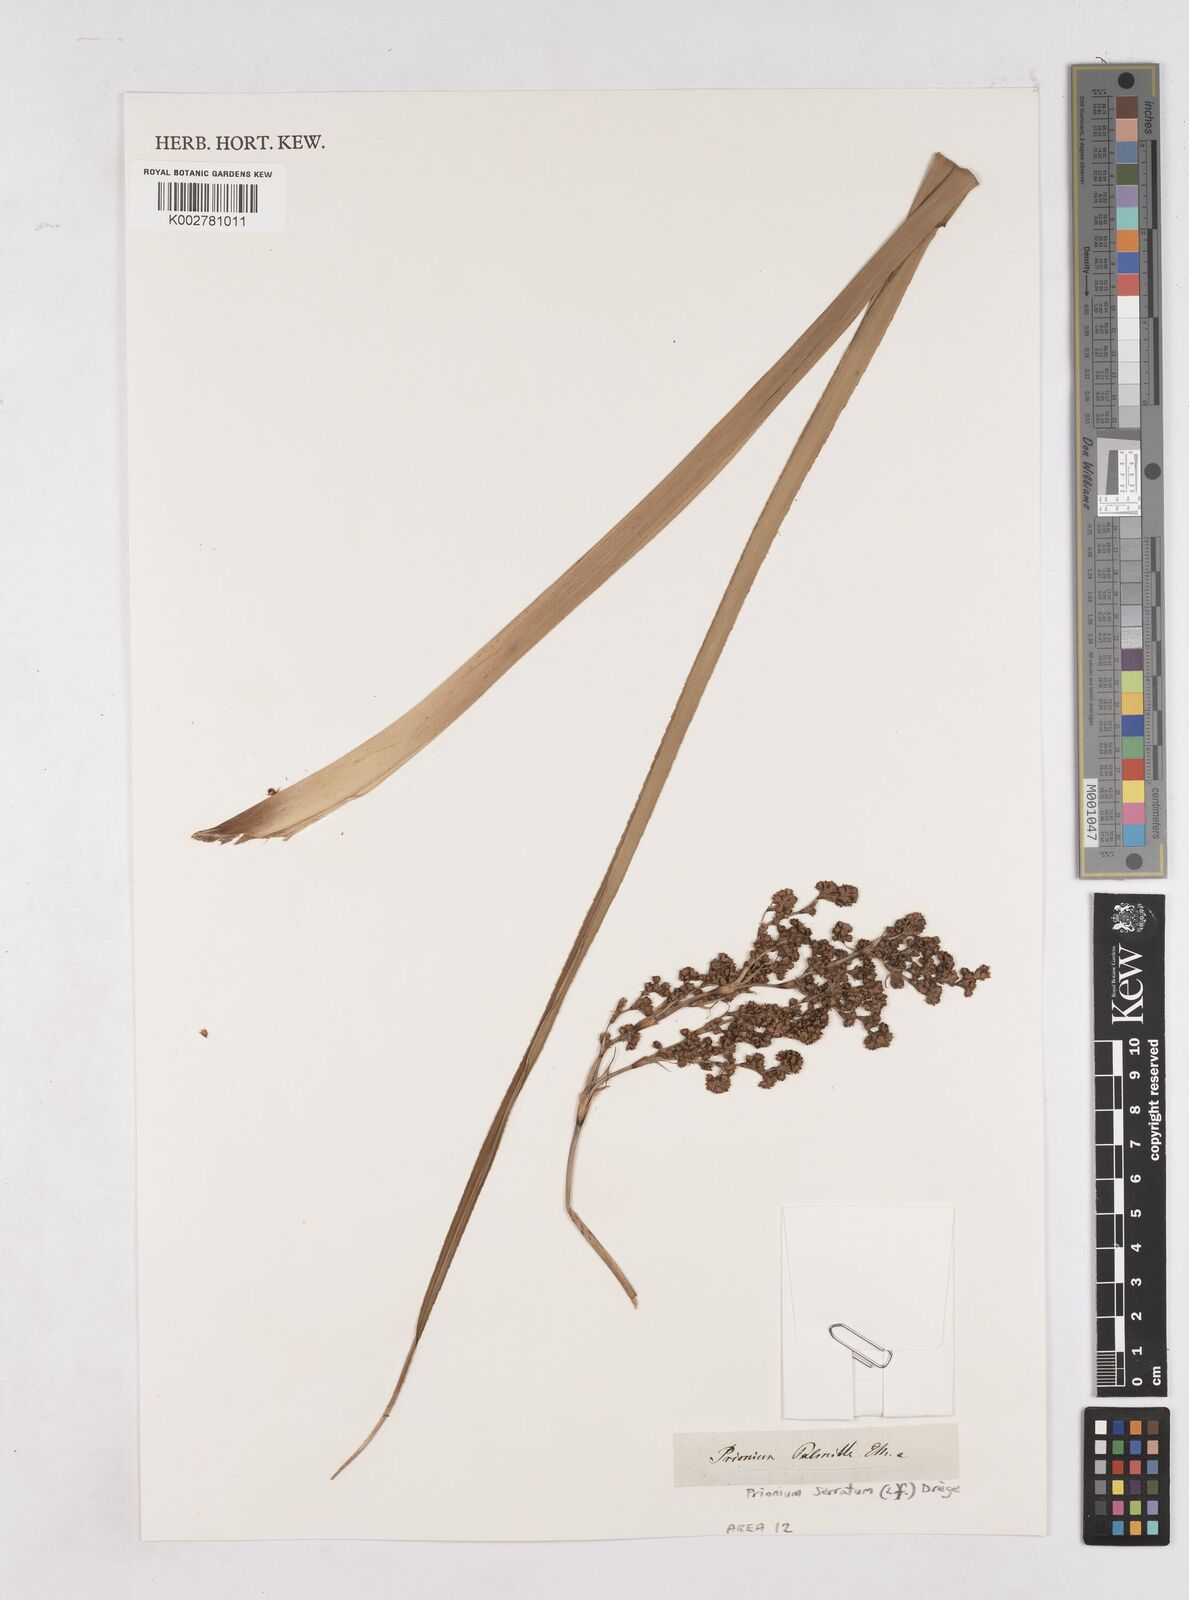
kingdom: Plantae
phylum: Tracheophyta
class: Liliopsida
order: Poales
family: Thurniaceae
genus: Prionium
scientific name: Prionium serratum
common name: Palmiet
